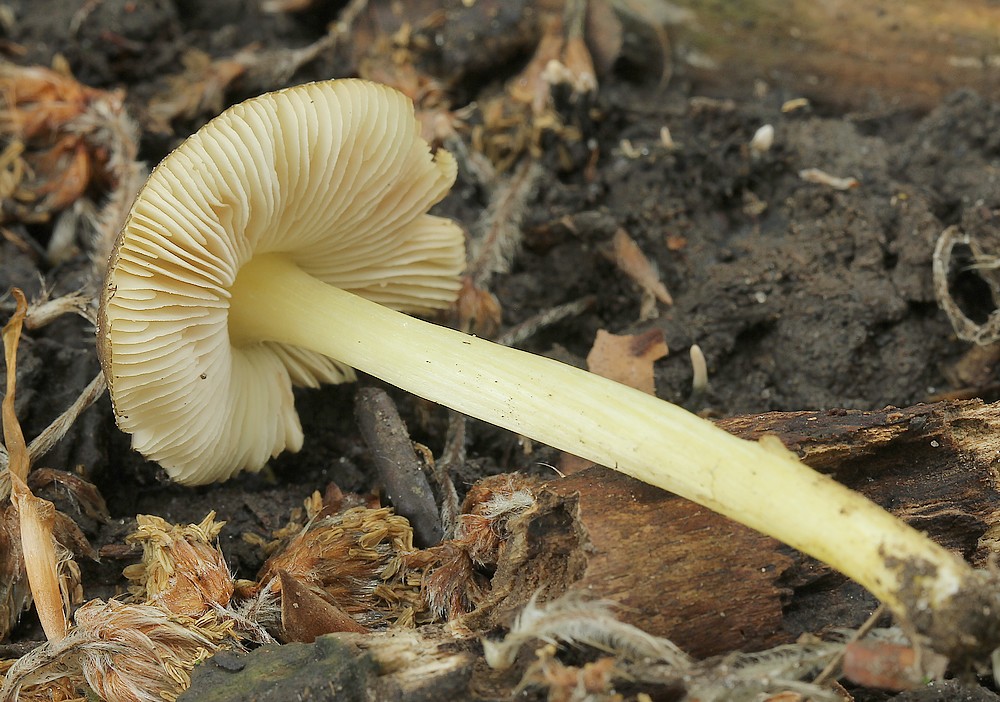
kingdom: Fungi
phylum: Basidiomycota
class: Agaricomycetes
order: Agaricales
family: Pluteaceae
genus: Pluteus
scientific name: Pluteus romellii
